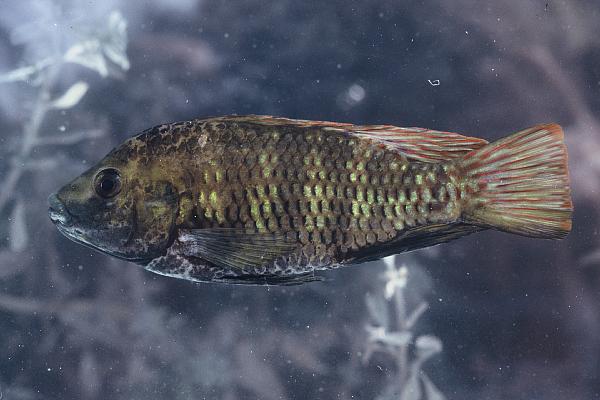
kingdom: Animalia
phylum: Chordata
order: Perciformes
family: Cichlidae
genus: Tilapia
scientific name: Tilapia guinasana
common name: Otjikoto tilapia
